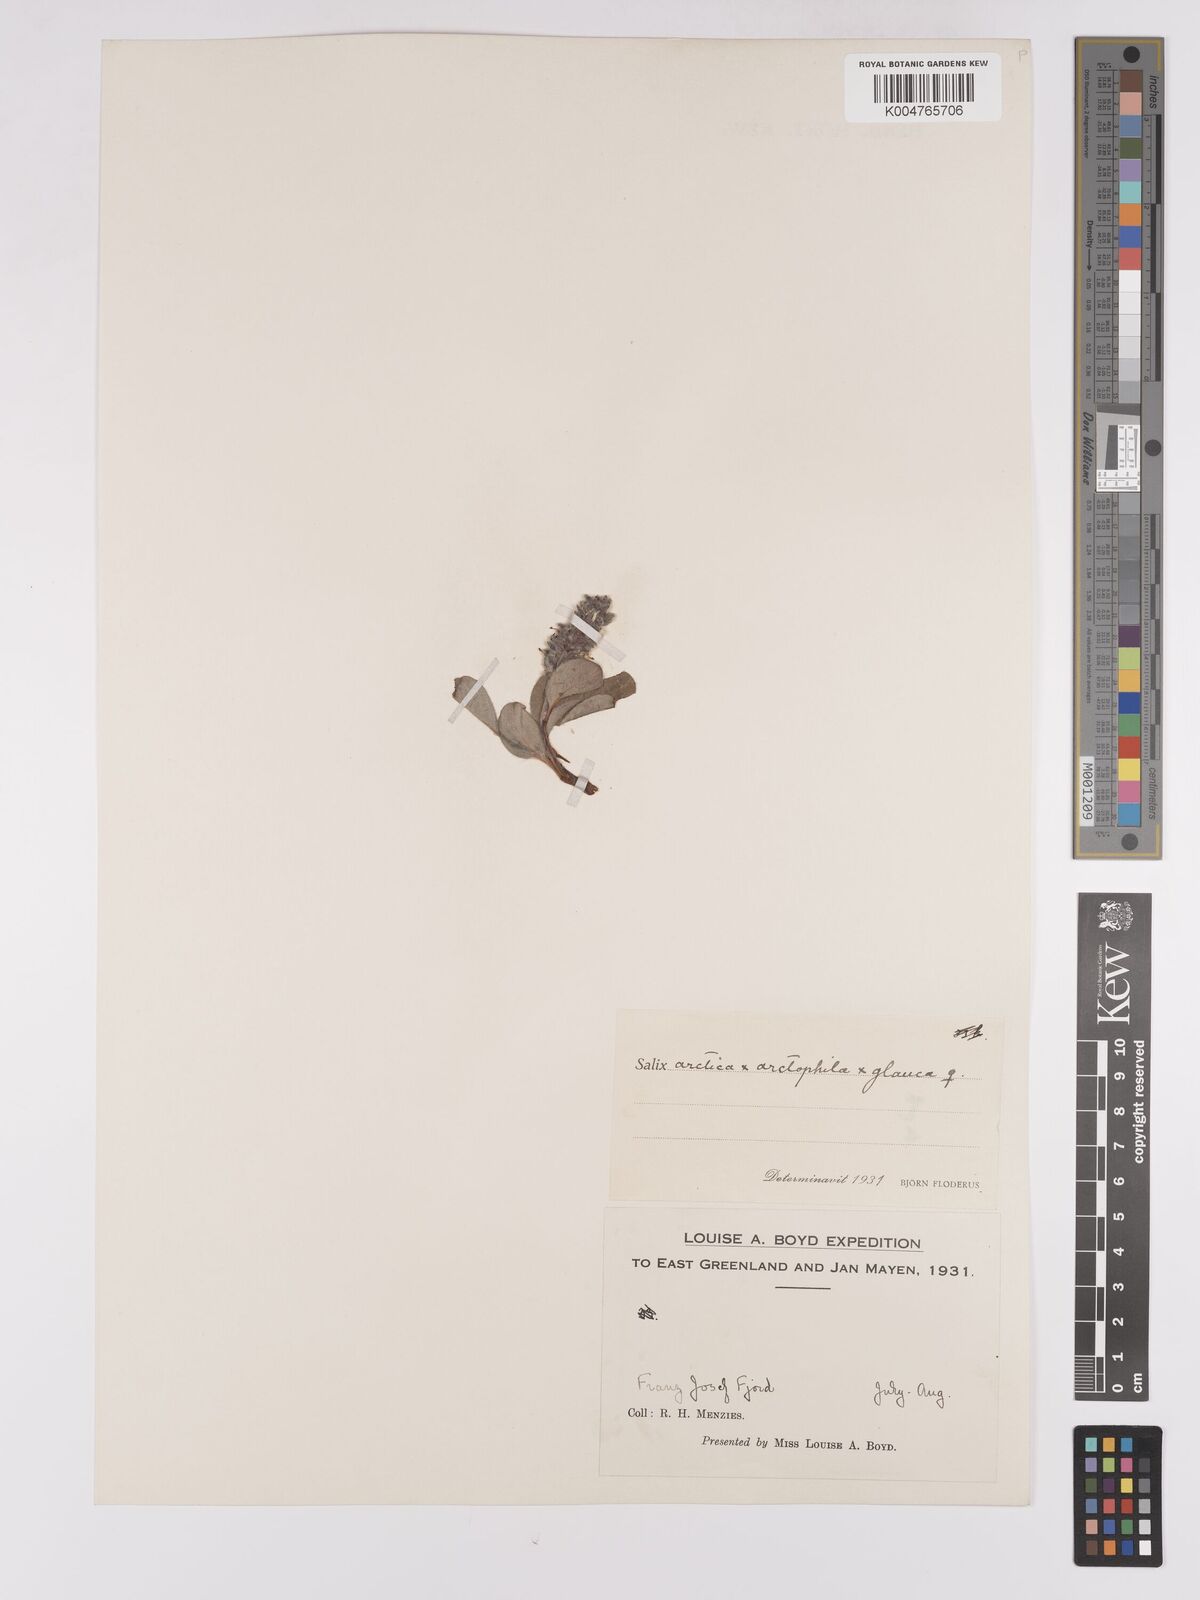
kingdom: Plantae
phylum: Tracheophyta
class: Magnoliopsida
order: Malpighiales
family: Salicaceae
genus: Salix
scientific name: Salix arctophila
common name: Greenland willow
